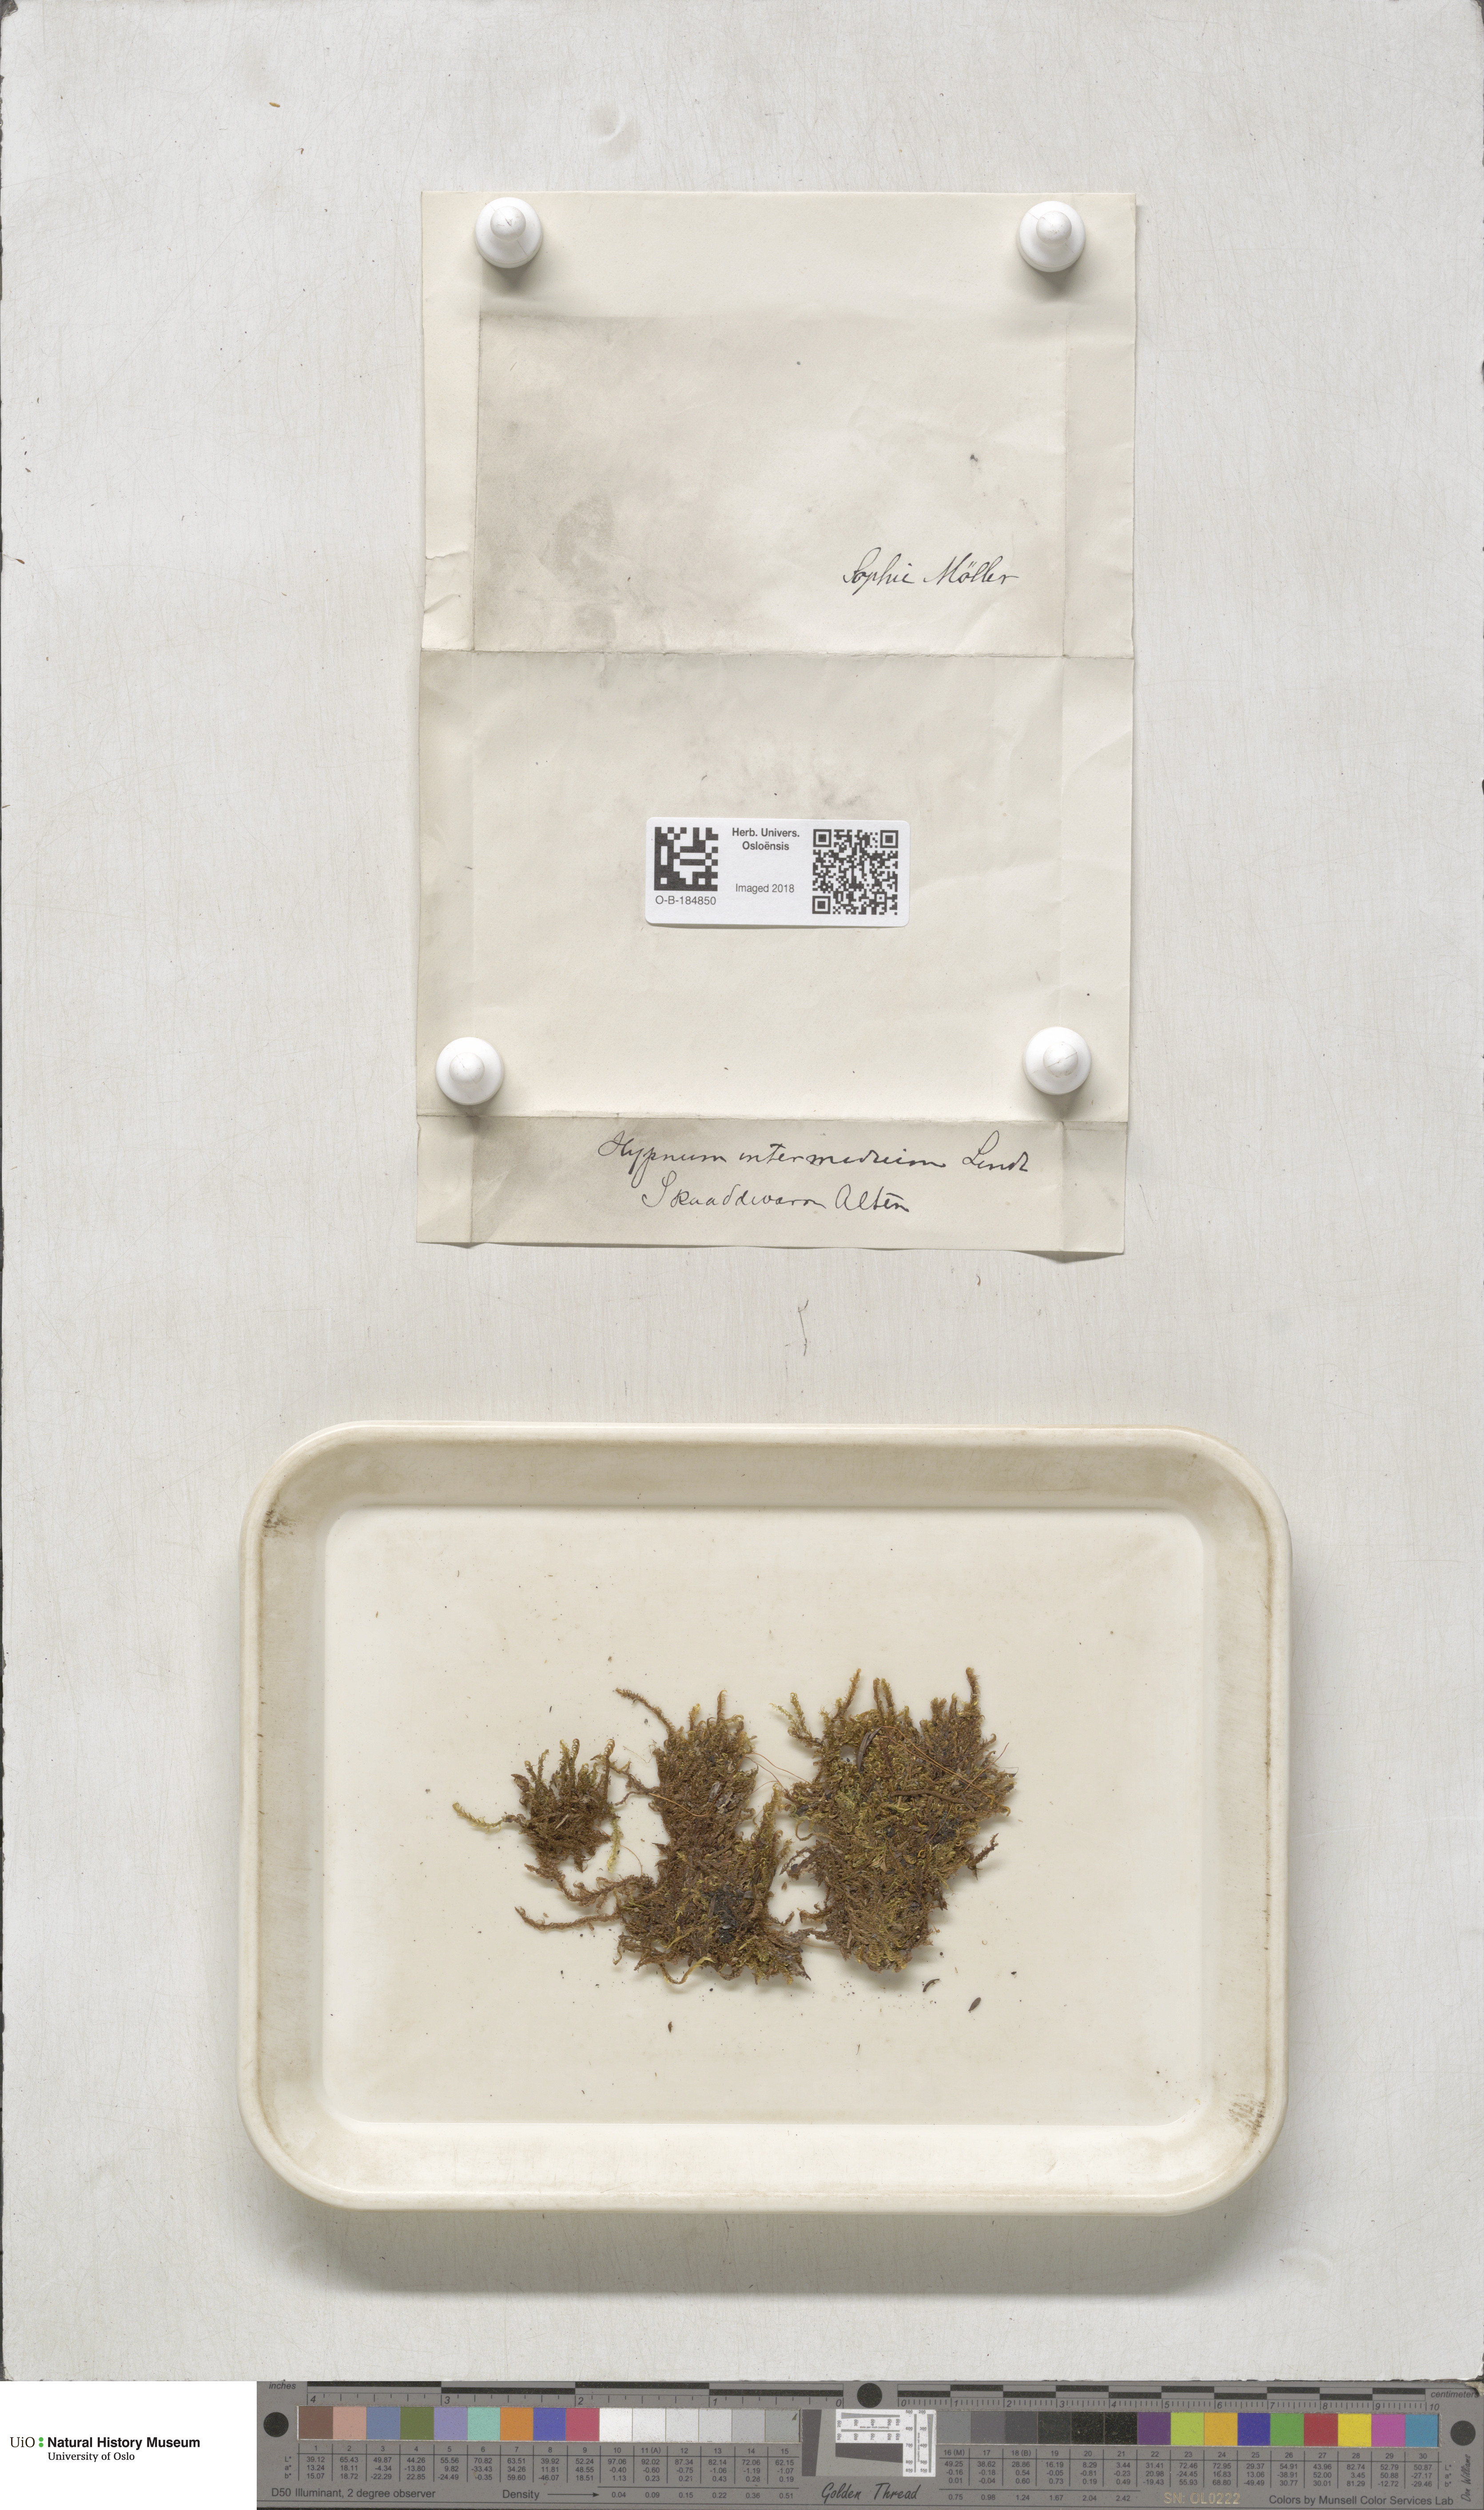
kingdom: Plantae
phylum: Bryophyta
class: Bryopsida
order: Hypnales
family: Scorpidiaceae
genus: Scorpidium
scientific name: Scorpidium cossonii
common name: Cosson's hook moss
